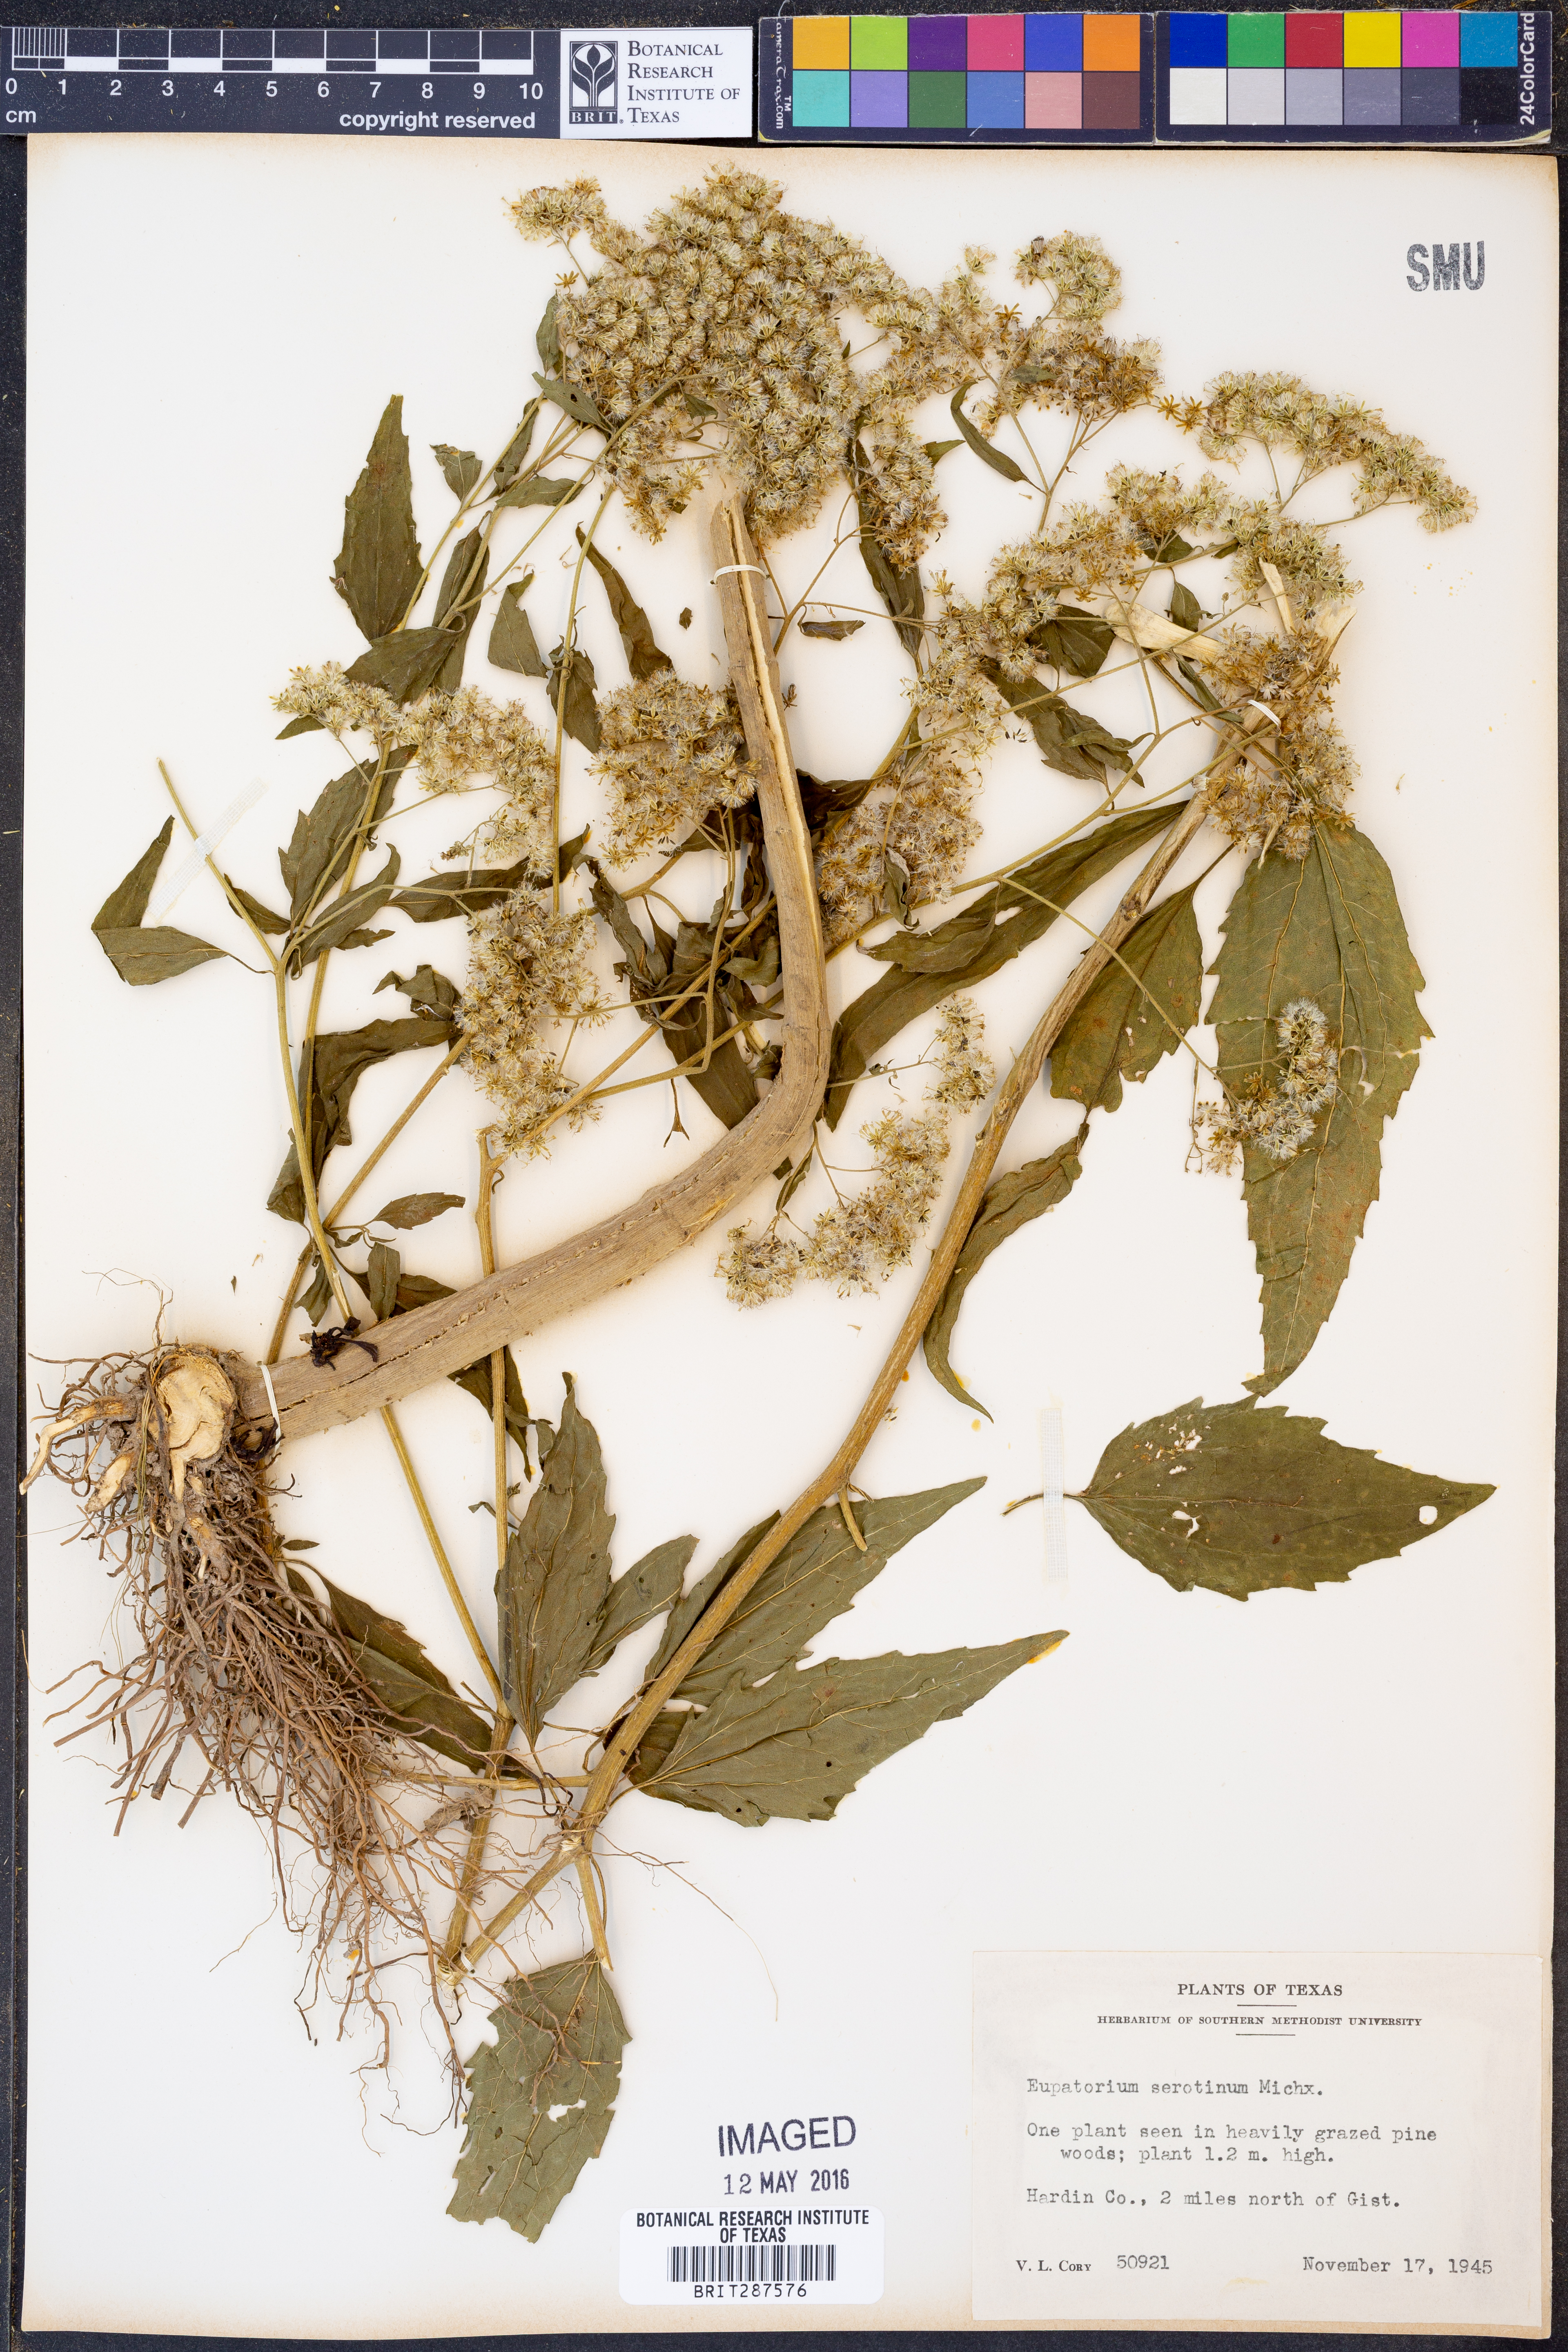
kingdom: Plantae
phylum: Tracheophyta
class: Magnoliopsida
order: Asterales
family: Asteraceae
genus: Eupatorium
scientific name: Eupatorium serotinum
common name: Late boneset
